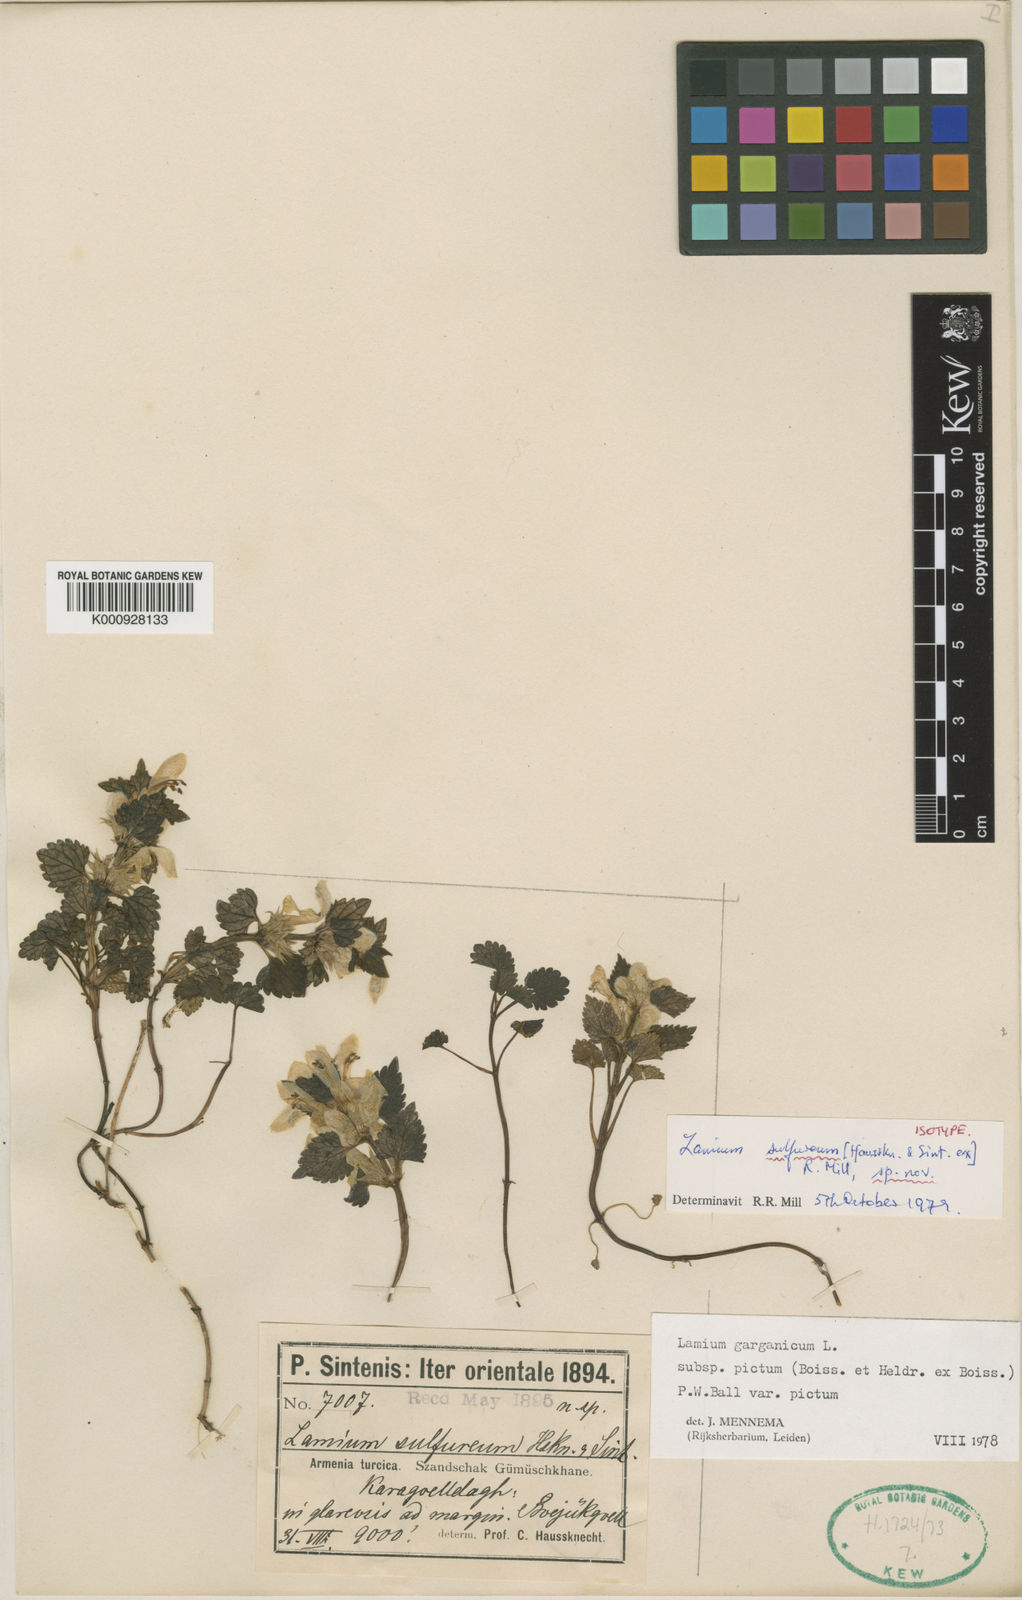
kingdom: Plantae
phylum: Tracheophyta
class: Magnoliopsida
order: Lamiales
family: Lamiaceae
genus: Lamium
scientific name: Lamium tomentosum
